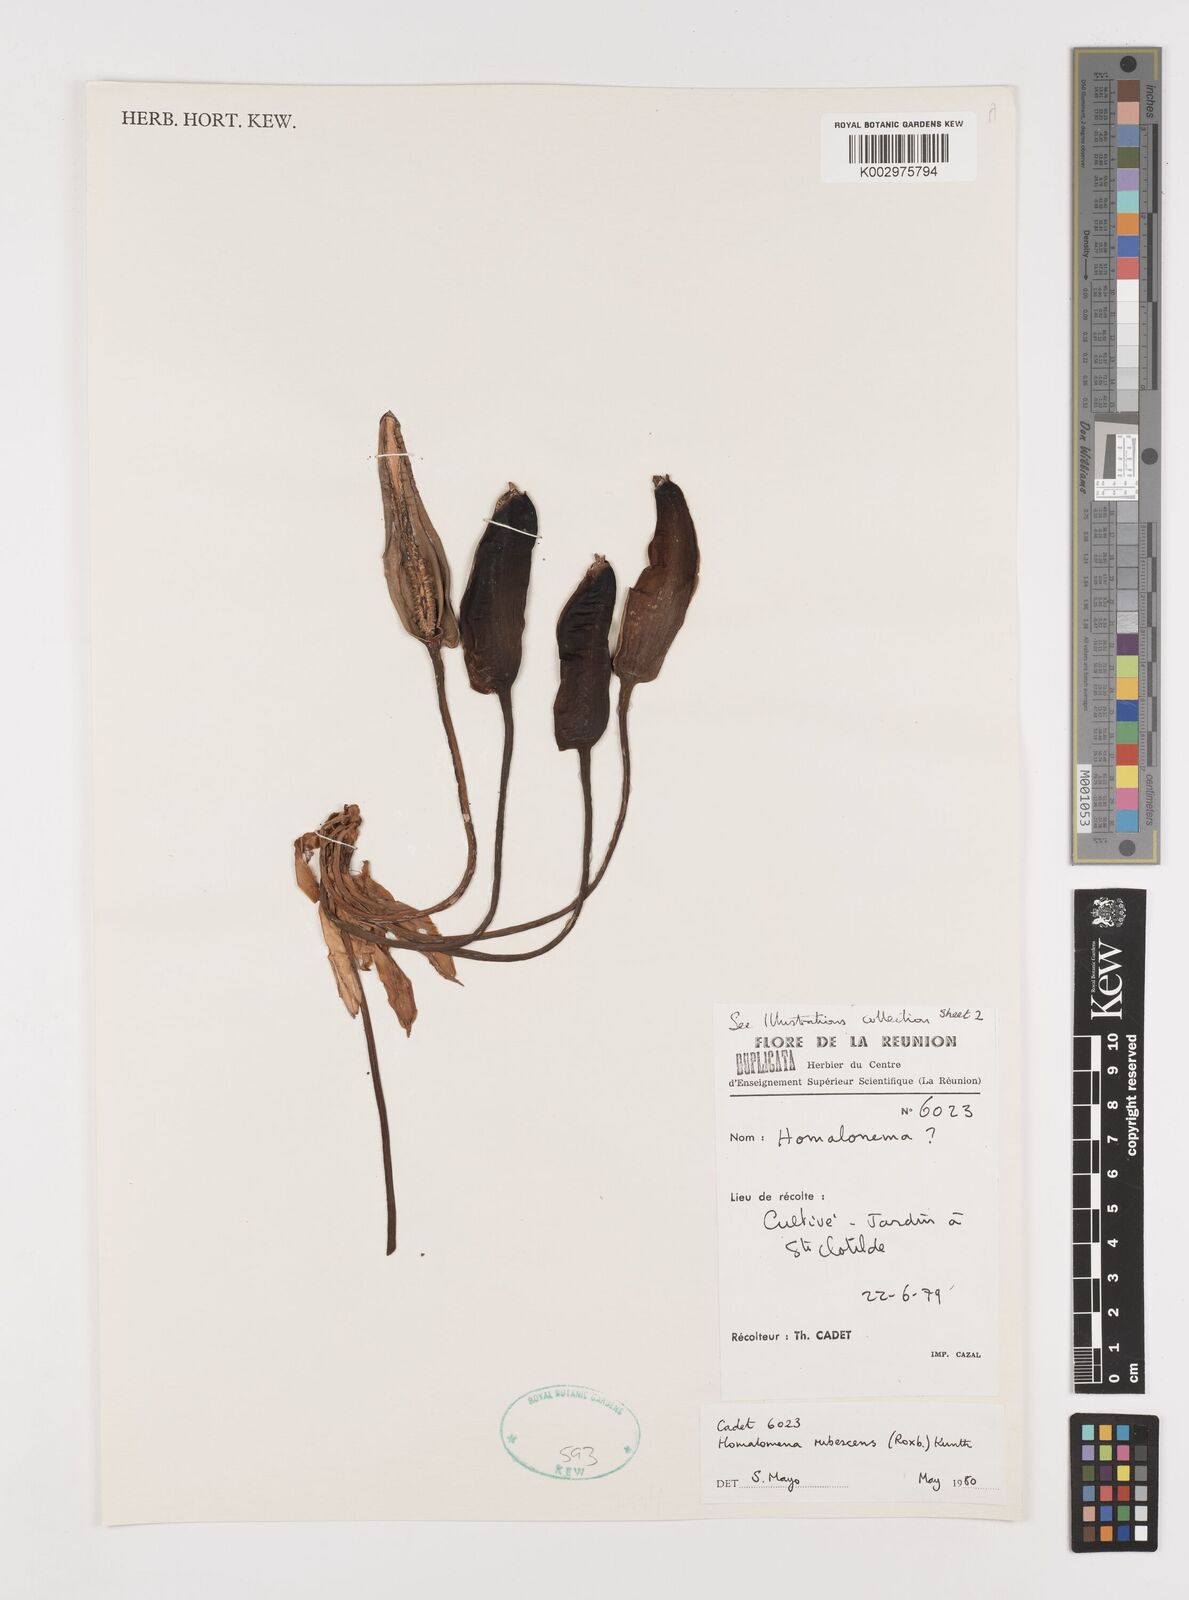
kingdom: Plantae
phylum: Tracheophyta
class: Liliopsida
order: Alismatales
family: Araceae
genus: Homalomena
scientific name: Homalomena rubescens
